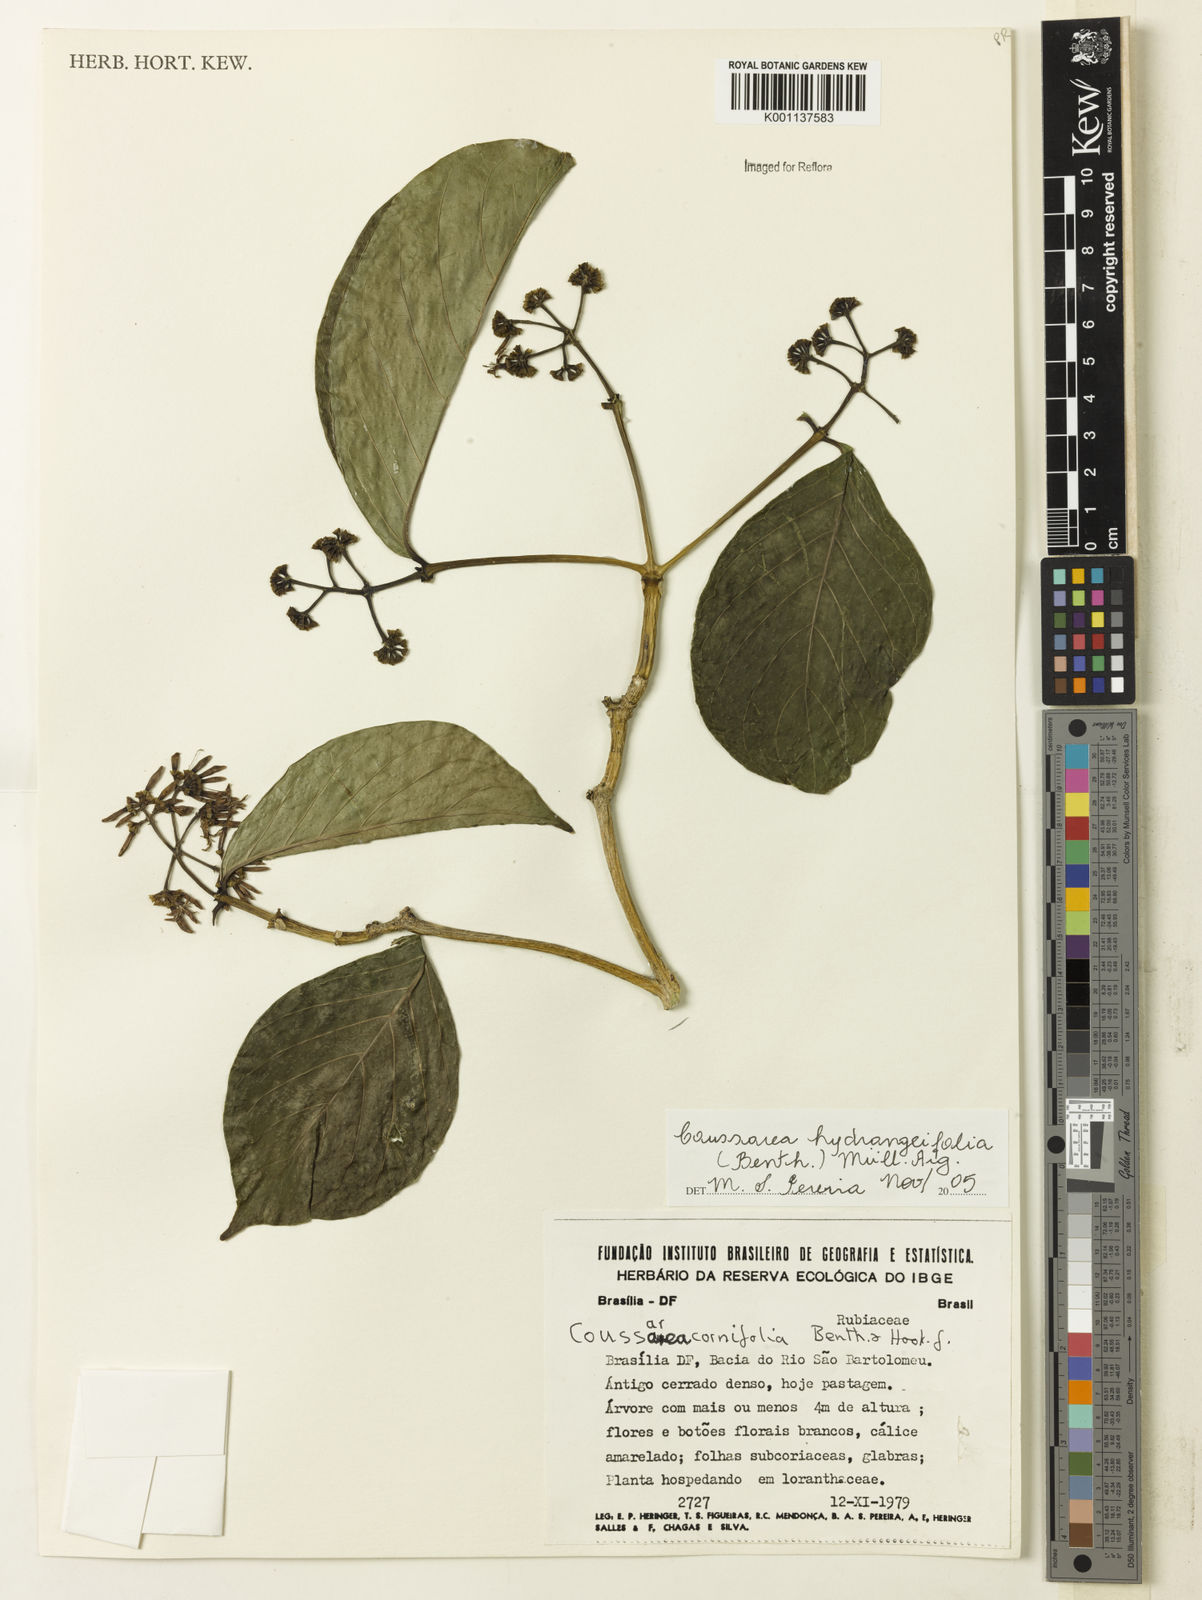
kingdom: Plantae
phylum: Tracheophyta
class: Magnoliopsida
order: Gentianales
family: Rubiaceae
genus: Coussarea
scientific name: Coussarea
